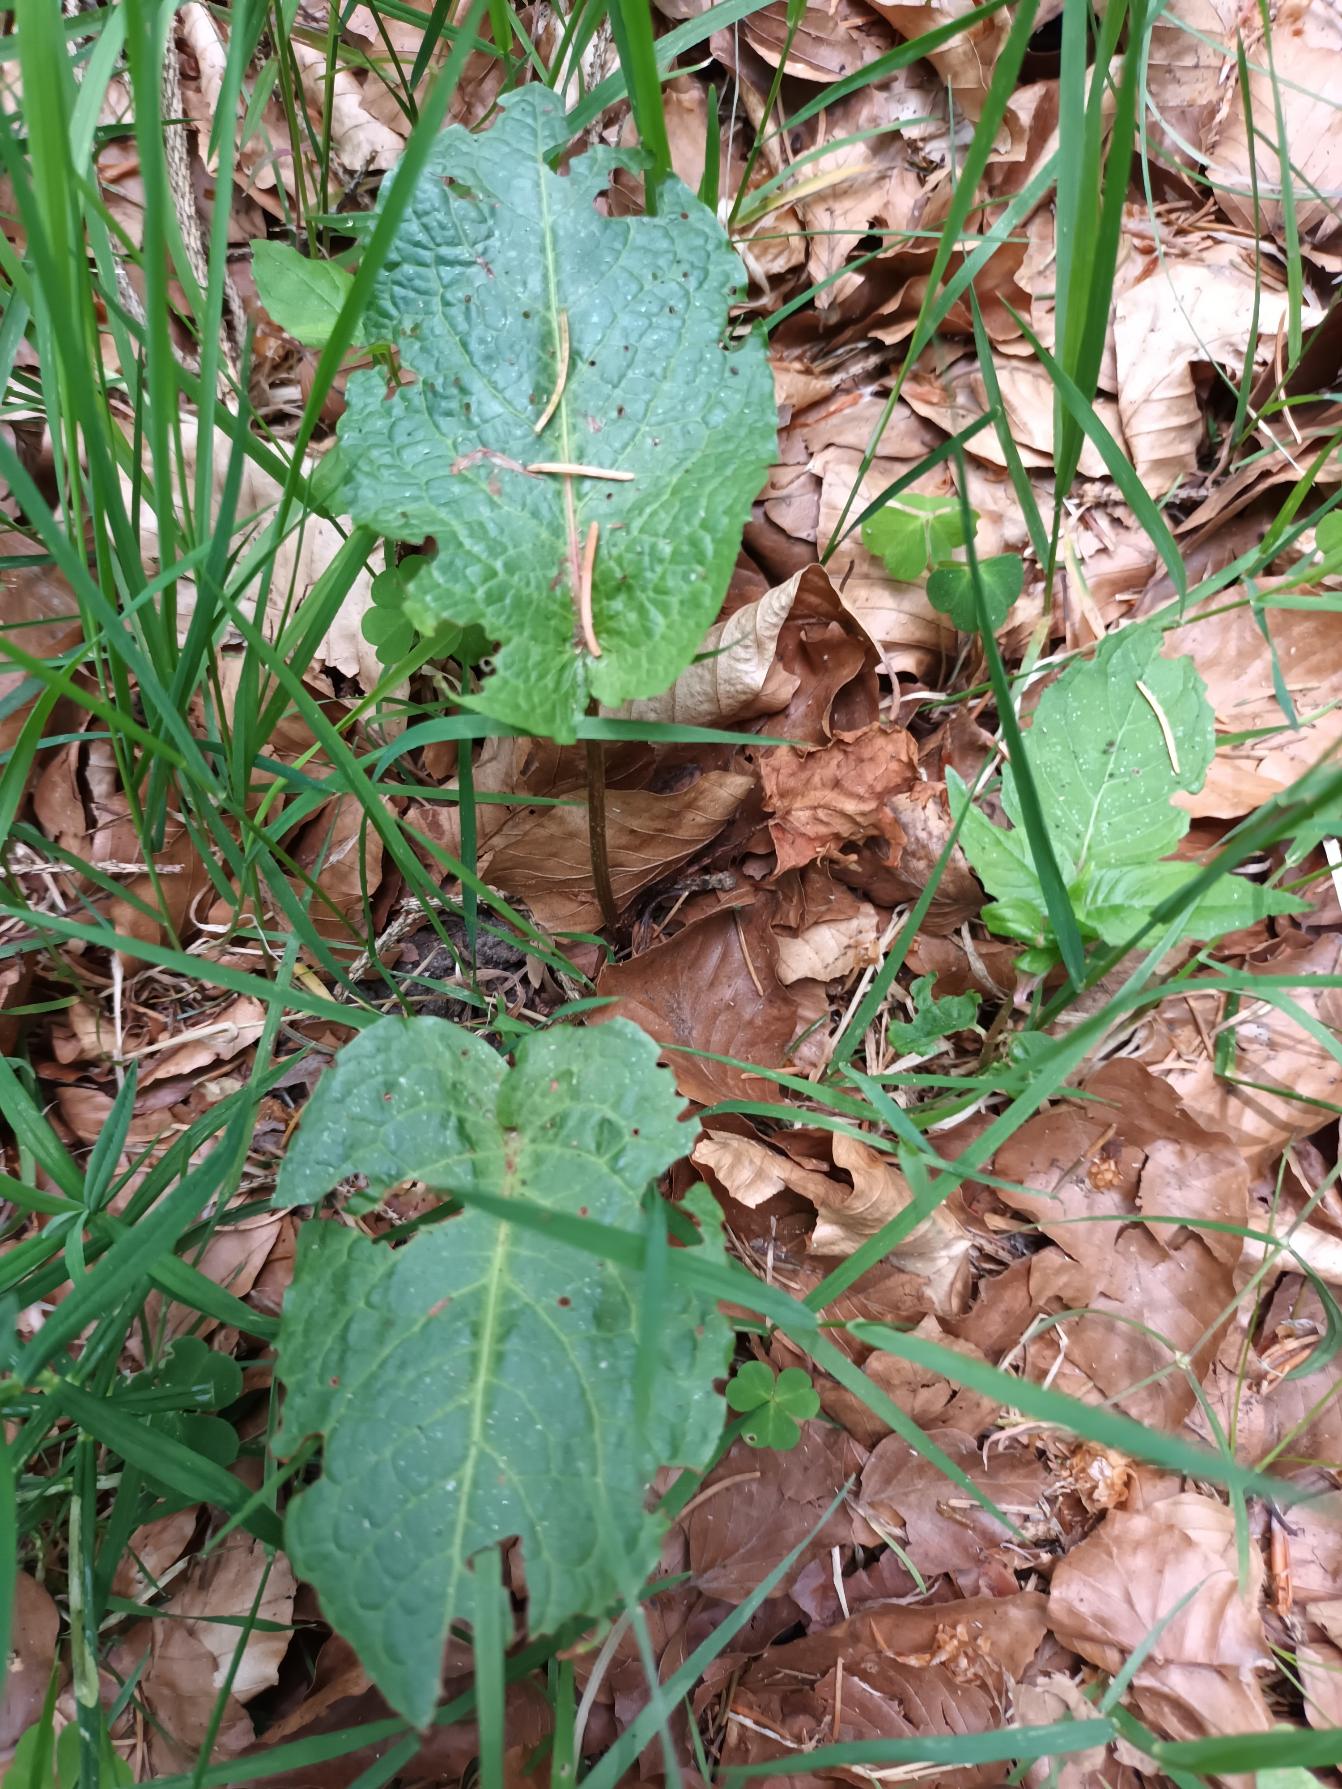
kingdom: Plantae
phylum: Tracheophyta
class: Magnoliopsida
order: Caryophyllales
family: Polygonaceae
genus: Rumex
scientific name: Rumex obtusifolius
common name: Butbladet skræppe
